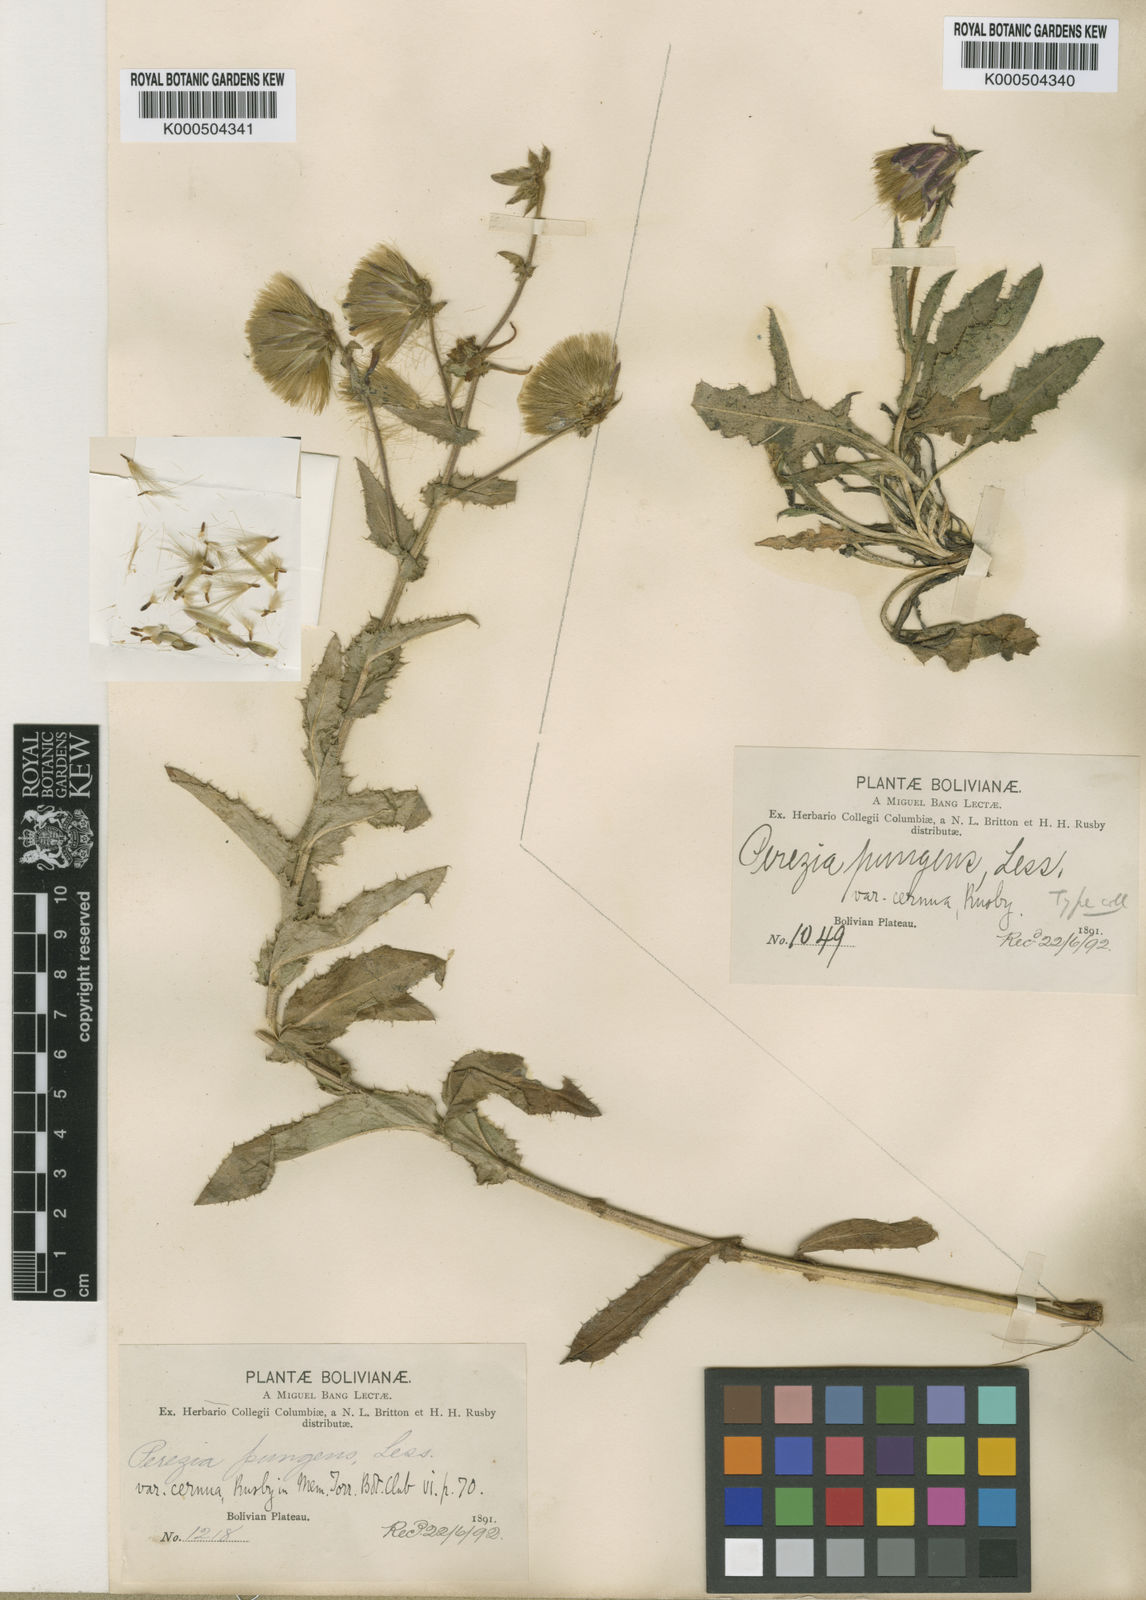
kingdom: Plantae
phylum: Tracheophyta
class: Magnoliopsida
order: Asterales
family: Asteraceae
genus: Perezia
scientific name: Perezia pungens
